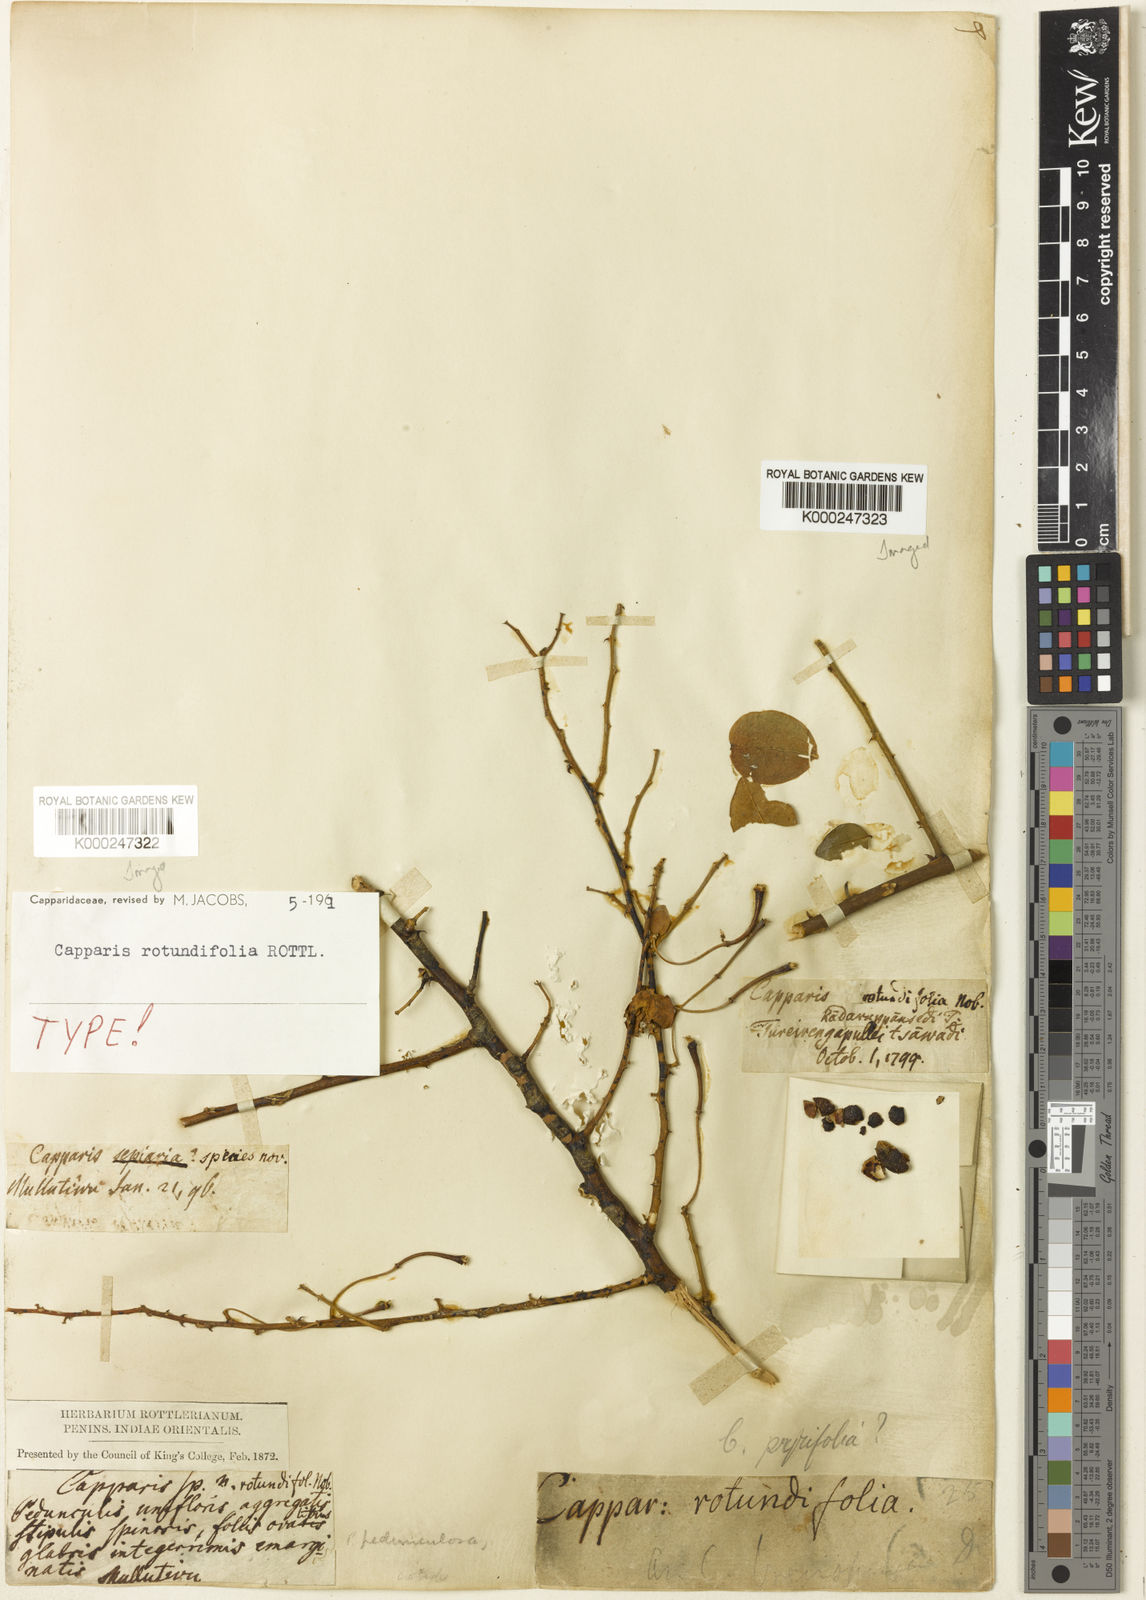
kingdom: Plantae
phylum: Tracheophyta
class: Magnoliopsida
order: Brassicales
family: Capparaceae
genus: Capparis
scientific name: Capparis rotundifolia
